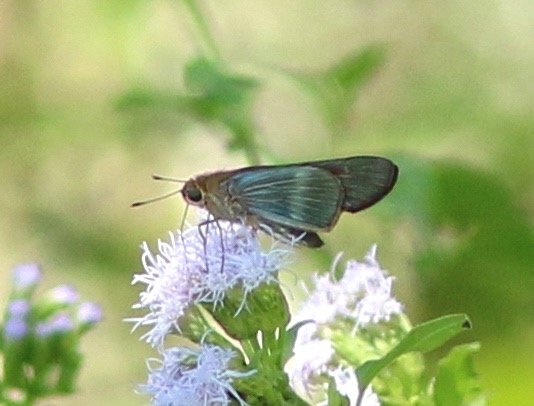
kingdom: Animalia
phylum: Arthropoda
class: Insecta
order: Lepidoptera
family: Hesperiidae
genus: Panoquina
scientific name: Panoquina fusina
